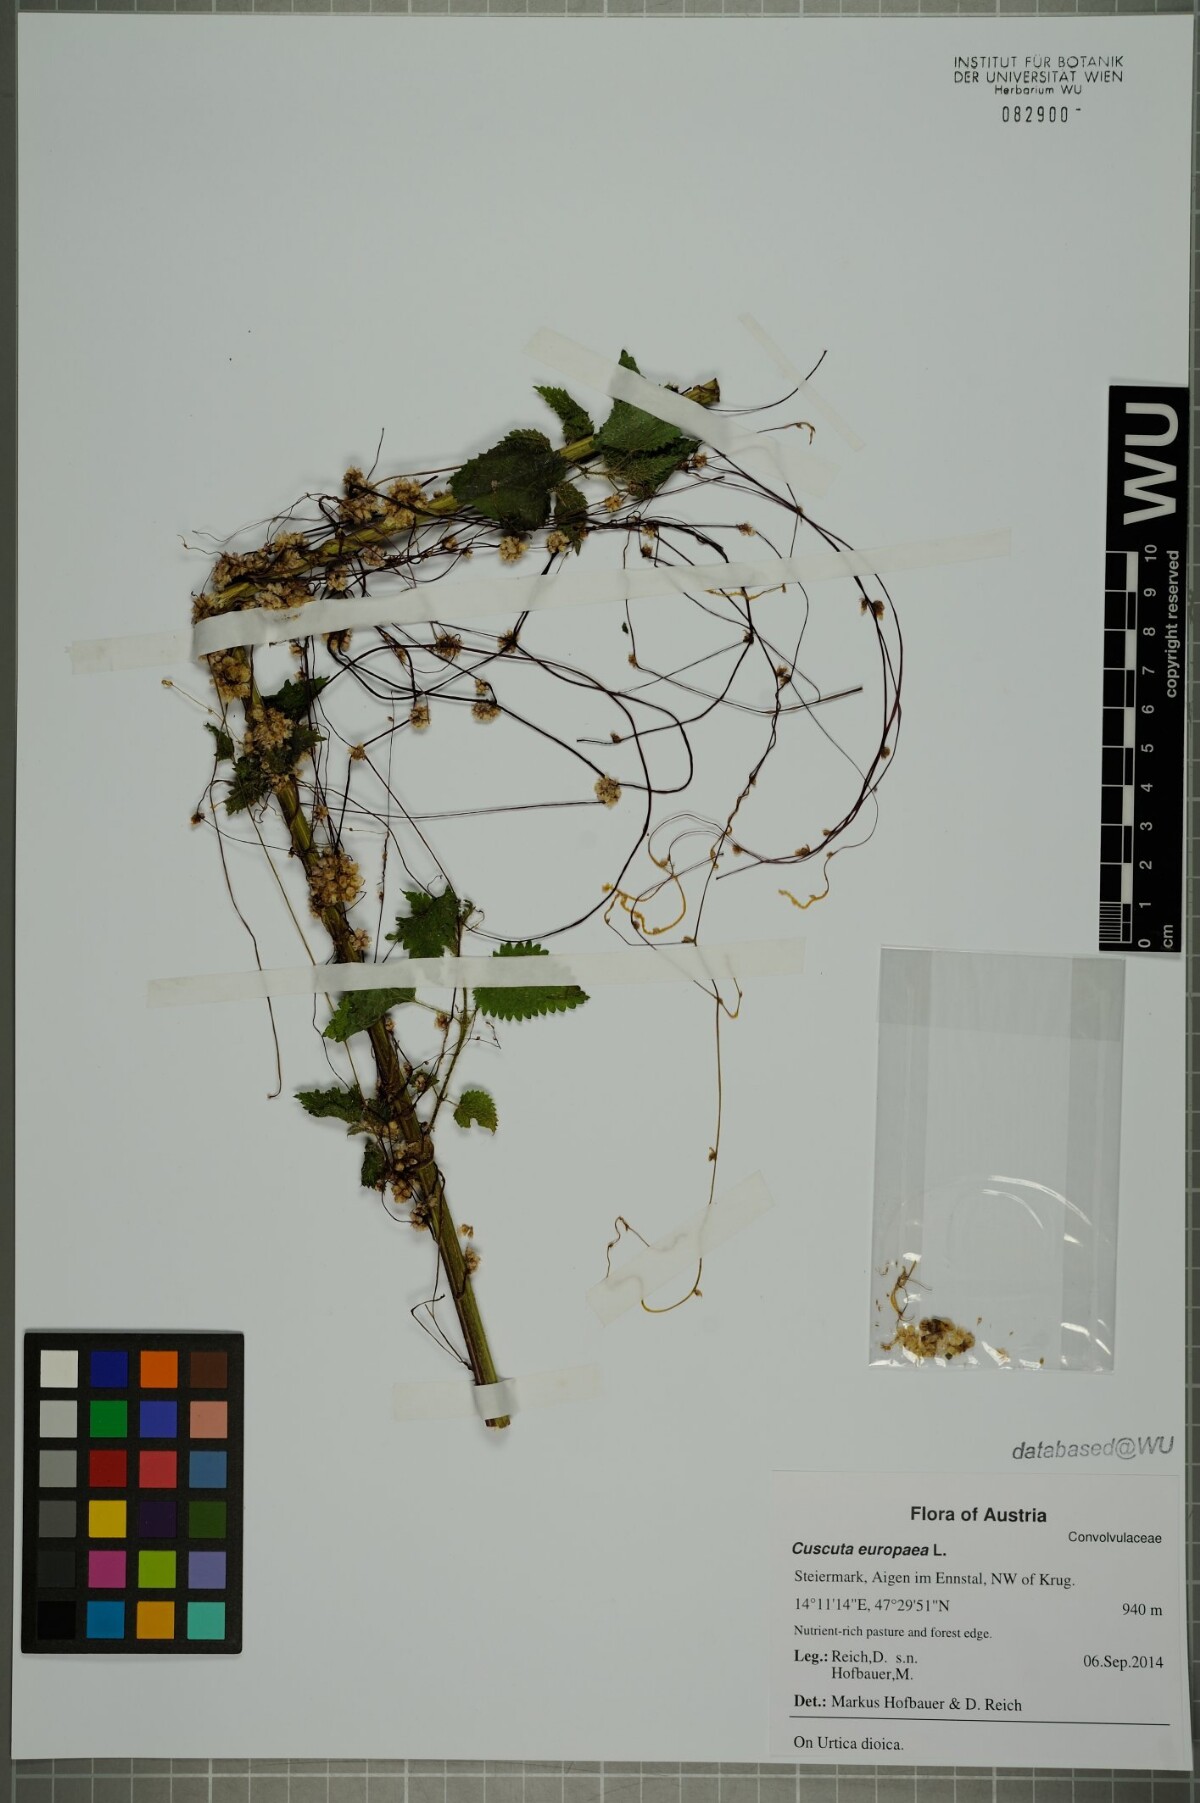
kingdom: Plantae
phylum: Tracheophyta
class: Magnoliopsida
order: Solanales
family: Convolvulaceae
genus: Cuscuta
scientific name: Cuscuta europaea
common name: Greater dodder
